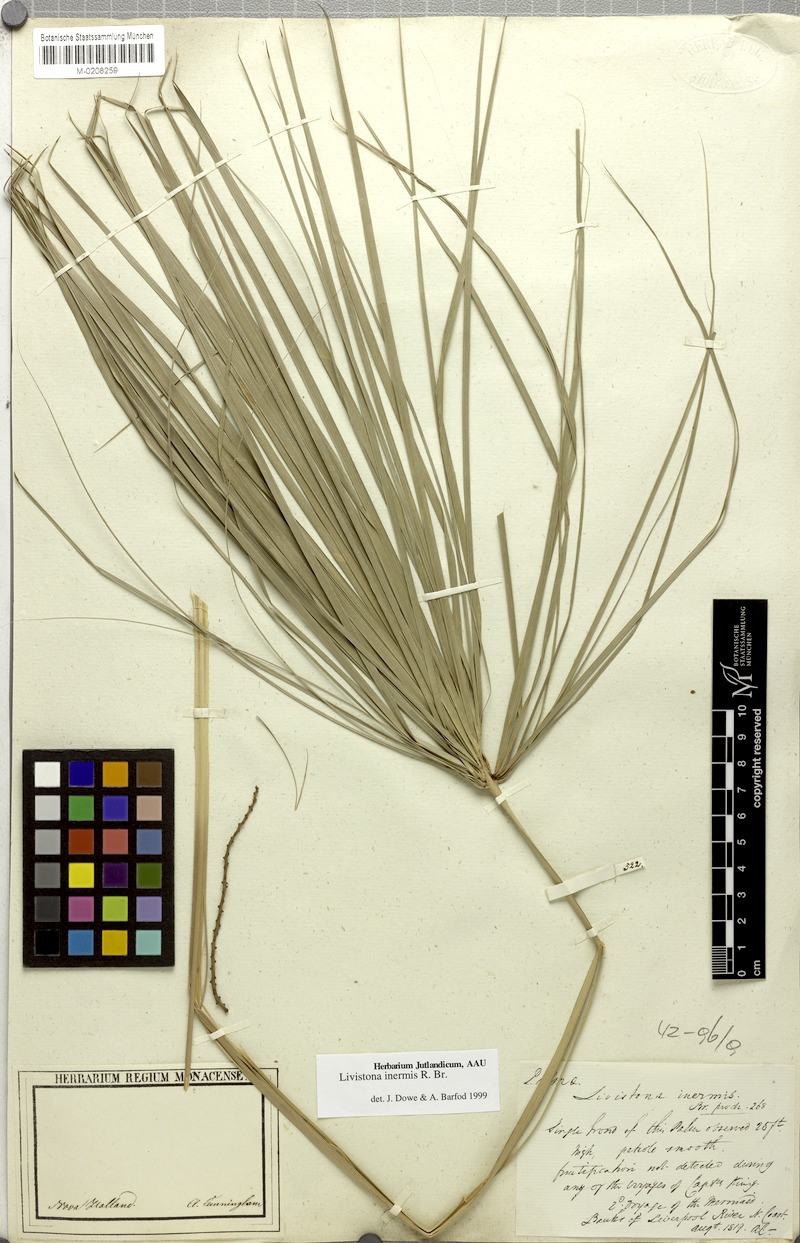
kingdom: Plantae
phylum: Tracheophyta
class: Liliopsida
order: Arecales
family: Arecaceae
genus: Livistona
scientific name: Livistona inermis
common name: Wispy fan palm
